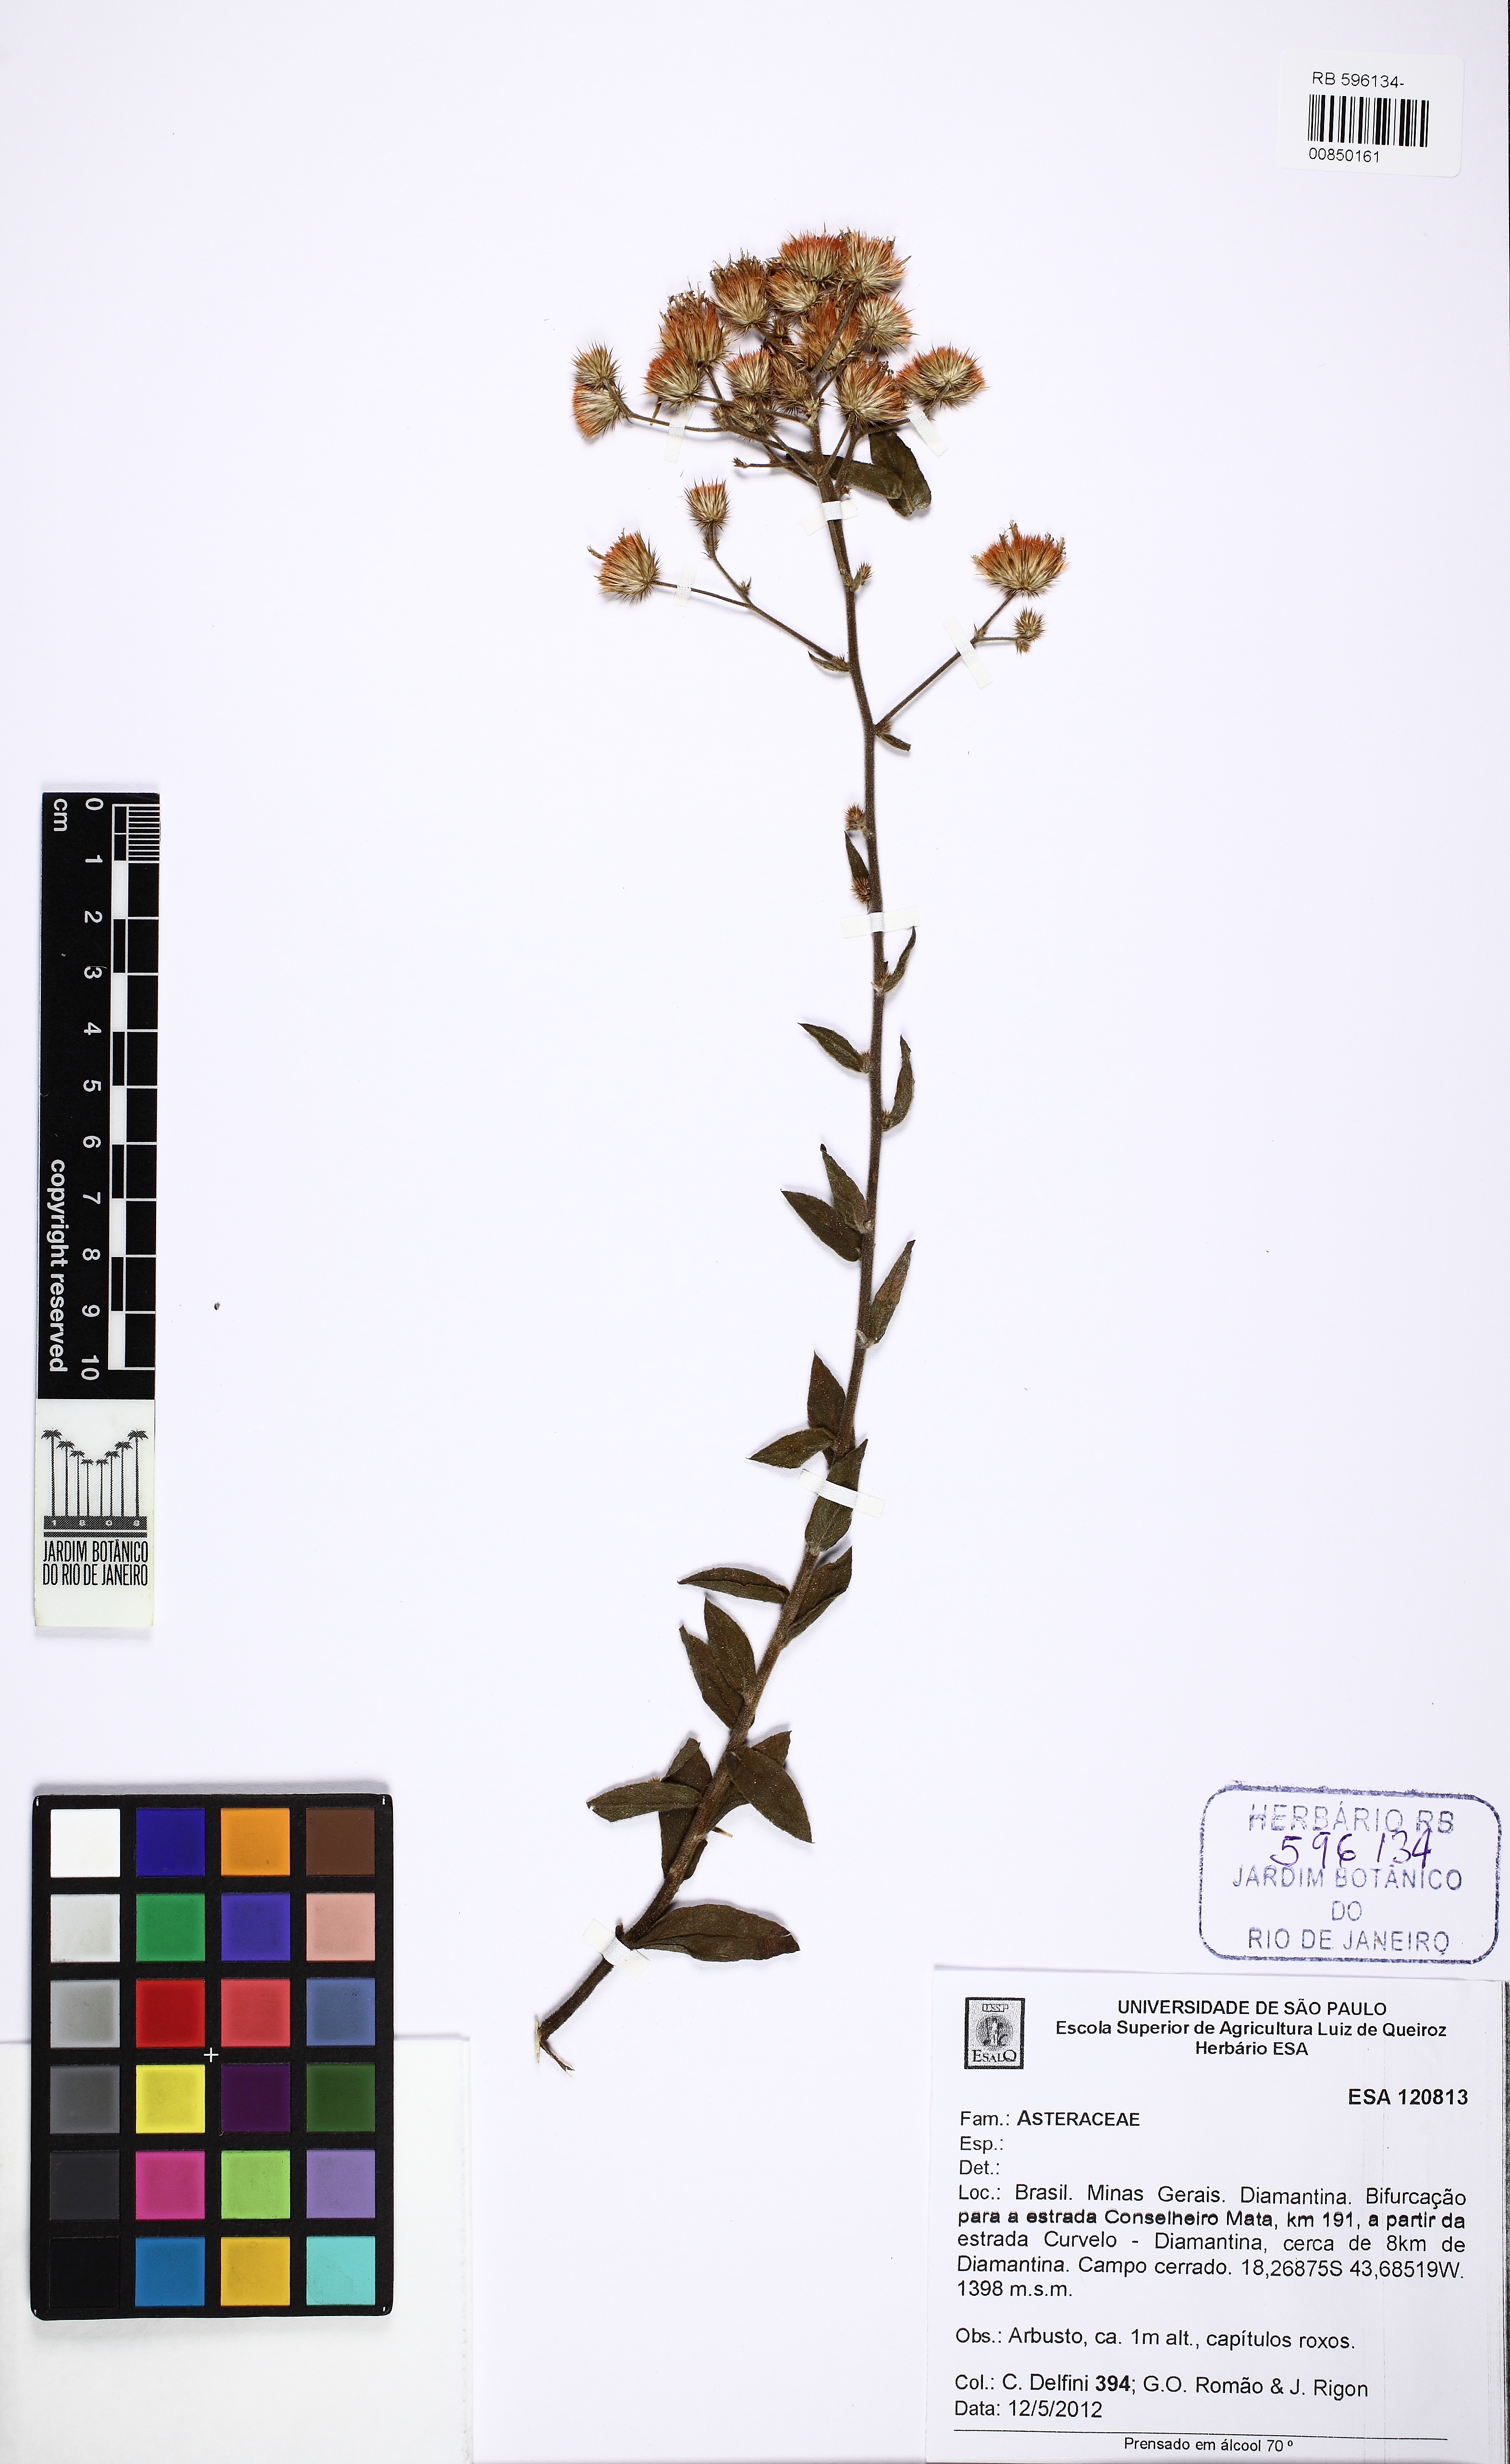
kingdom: Plantae
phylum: Tracheophyta
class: Magnoliopsida
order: Asterales
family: Asteraceae
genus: Echinocoryne
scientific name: Echinocoryne schwenkiaefolia
